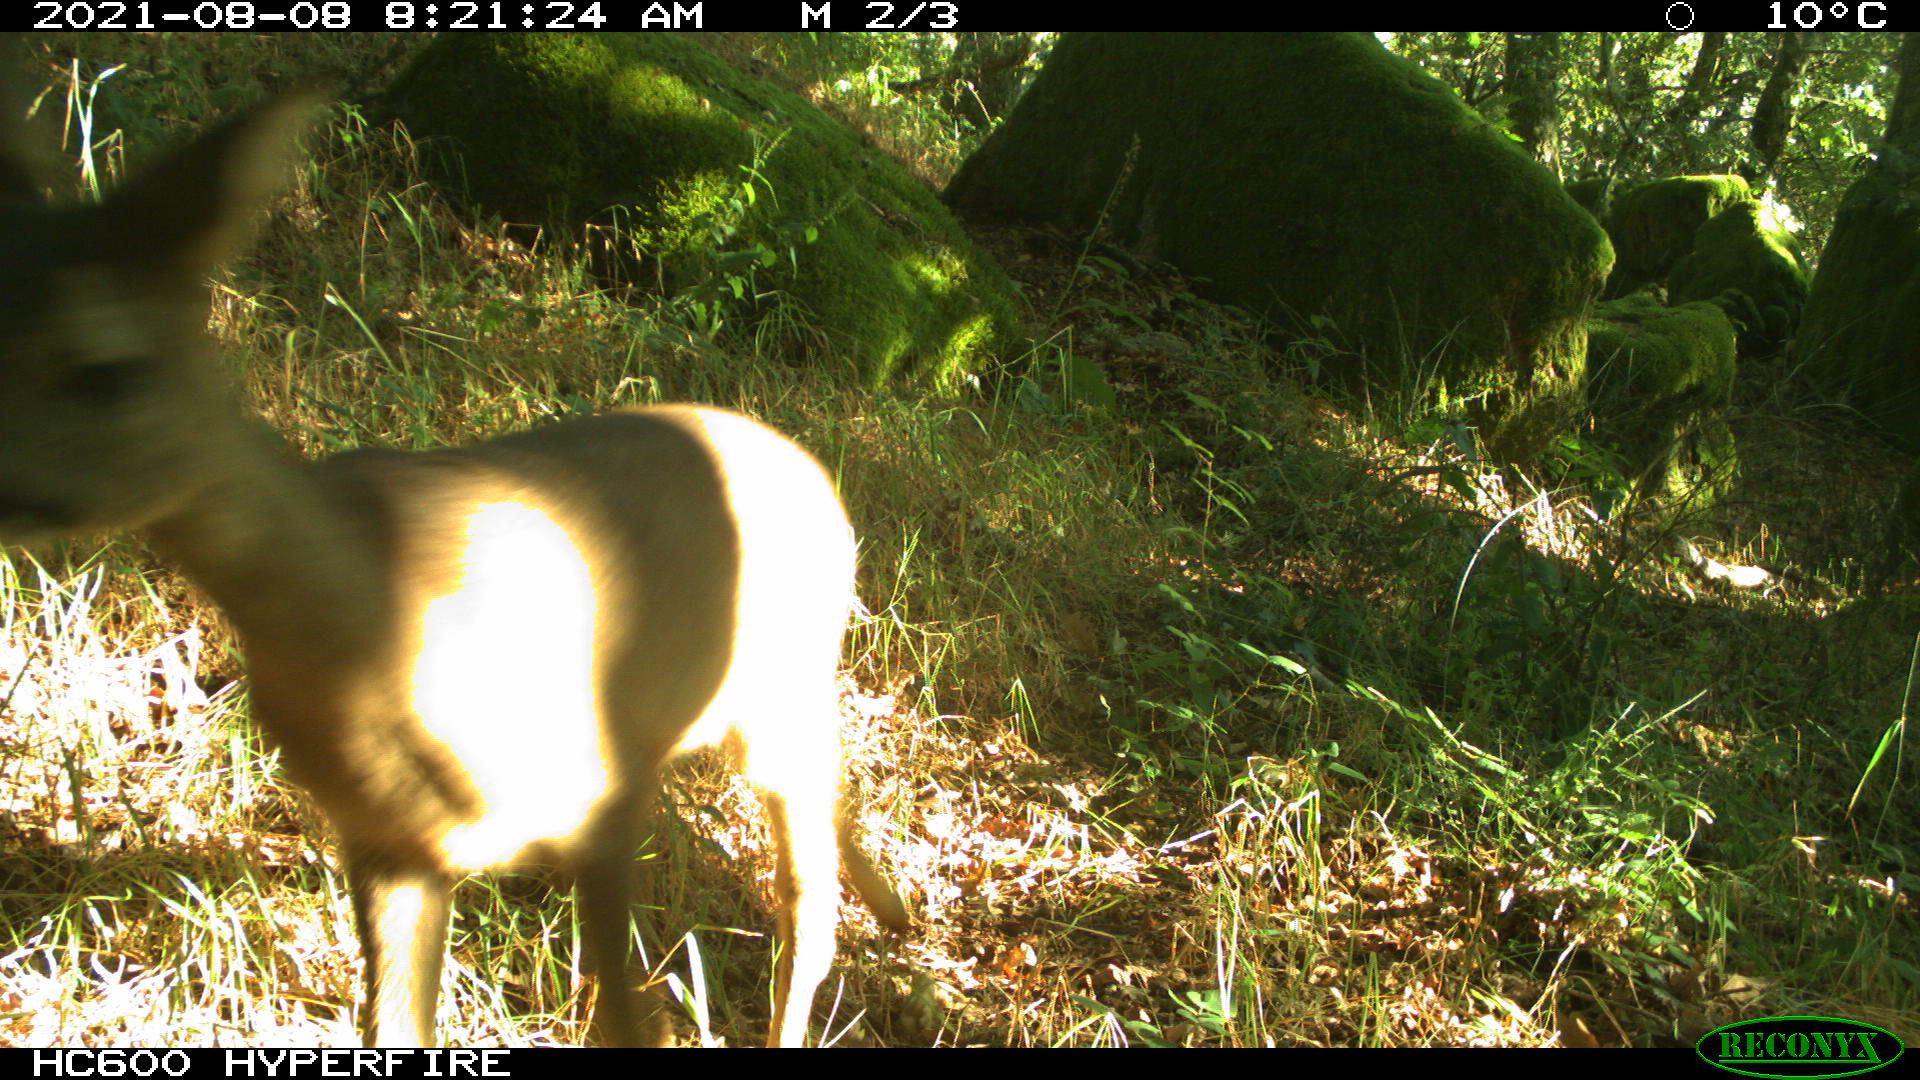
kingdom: Animalia
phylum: Chordata
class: Mammalia
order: Artiodactyla
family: Cervidae
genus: Capreolus
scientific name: Capreolus capreolus
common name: Western roe deer
